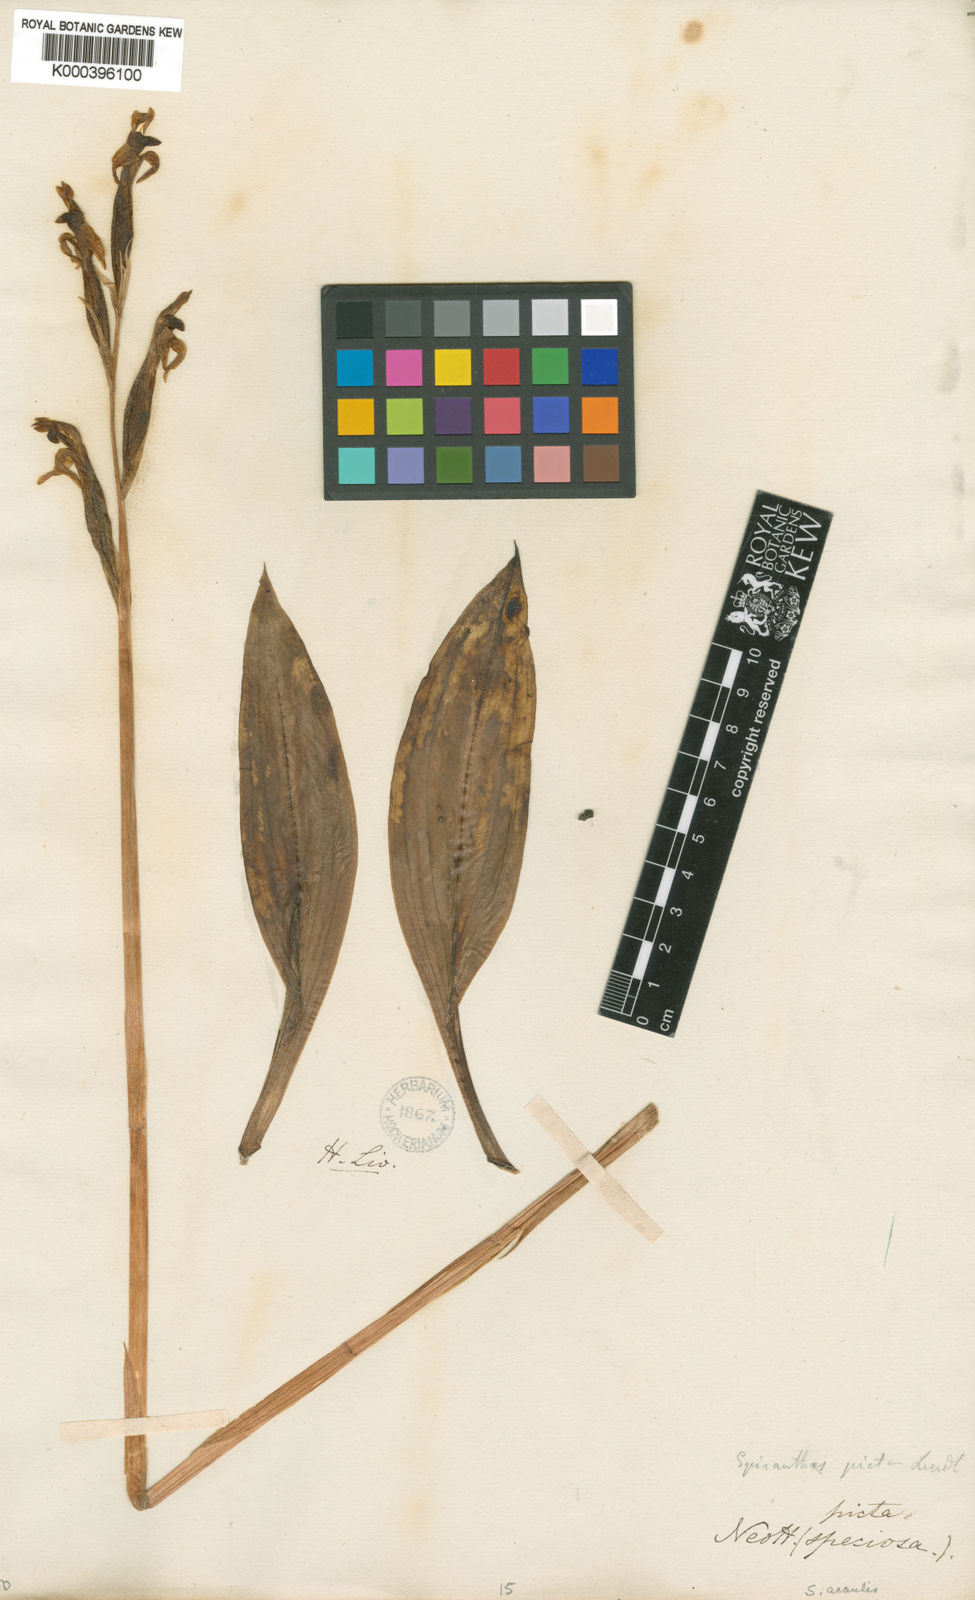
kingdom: Plantae
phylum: Tracheophyta
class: Liliopsida
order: Asparagales
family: Orchidaceae
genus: Sarcoglottis
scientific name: Sarcoglottis acaulis
